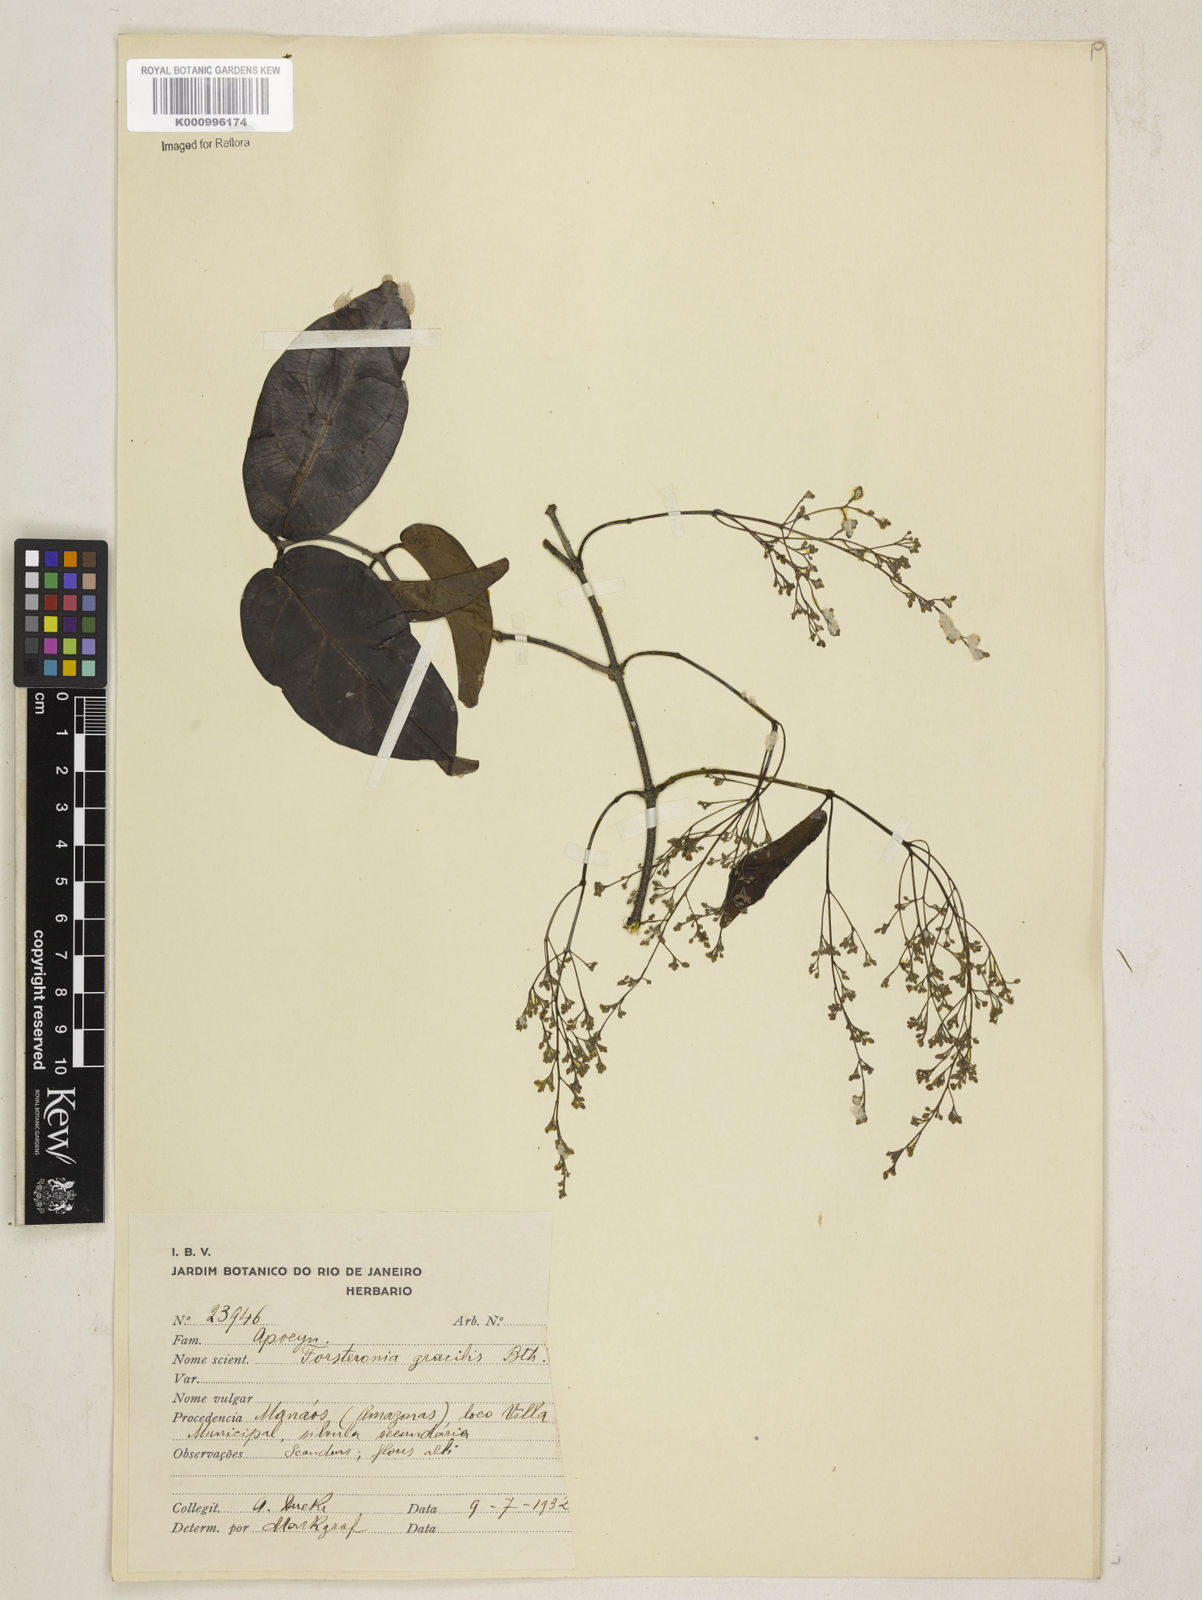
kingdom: Plantae
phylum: Tracheophyta
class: Magnoliopsida
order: Gentianales
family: Apocynaceae
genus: Forsteronia
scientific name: Forsteronia
